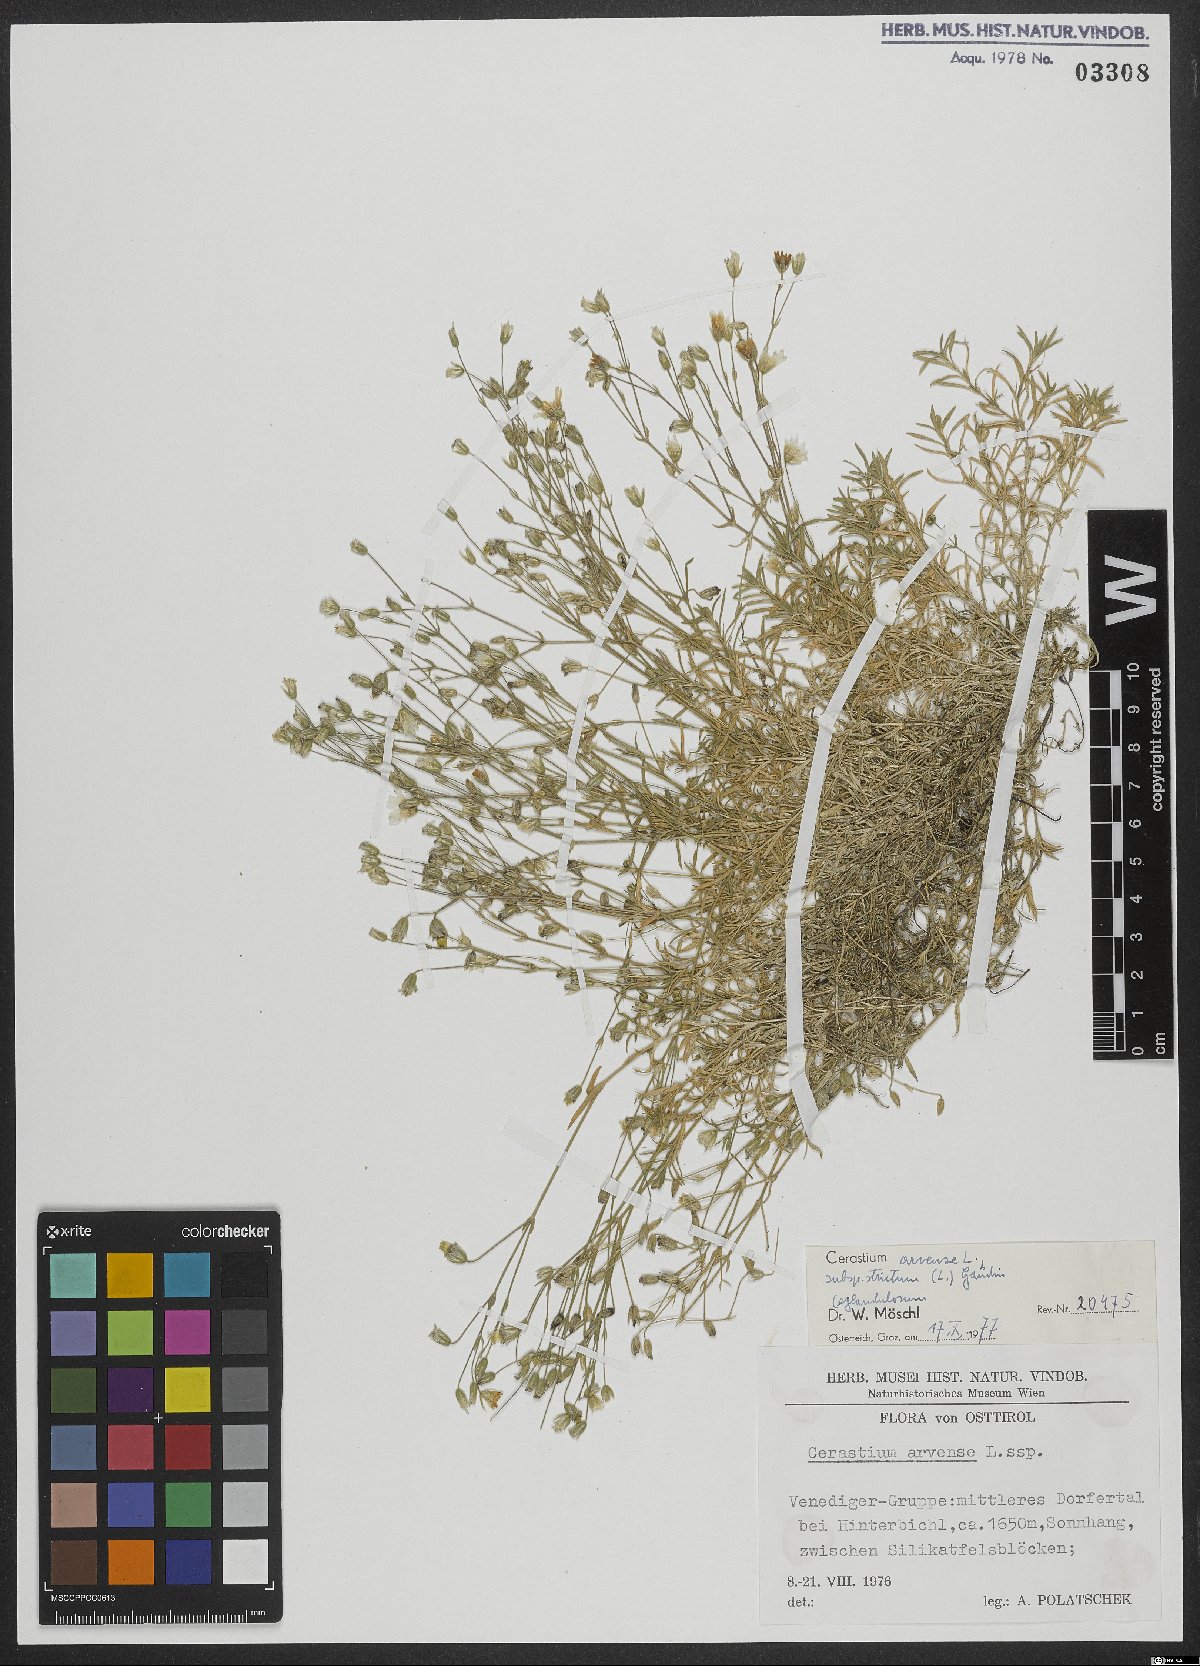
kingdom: Plantae
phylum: Tracheophyta
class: Magnoliopsida
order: Caryophyllales
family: Caryophyllaceae
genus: Cerastium
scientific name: Cerastium elongatum
